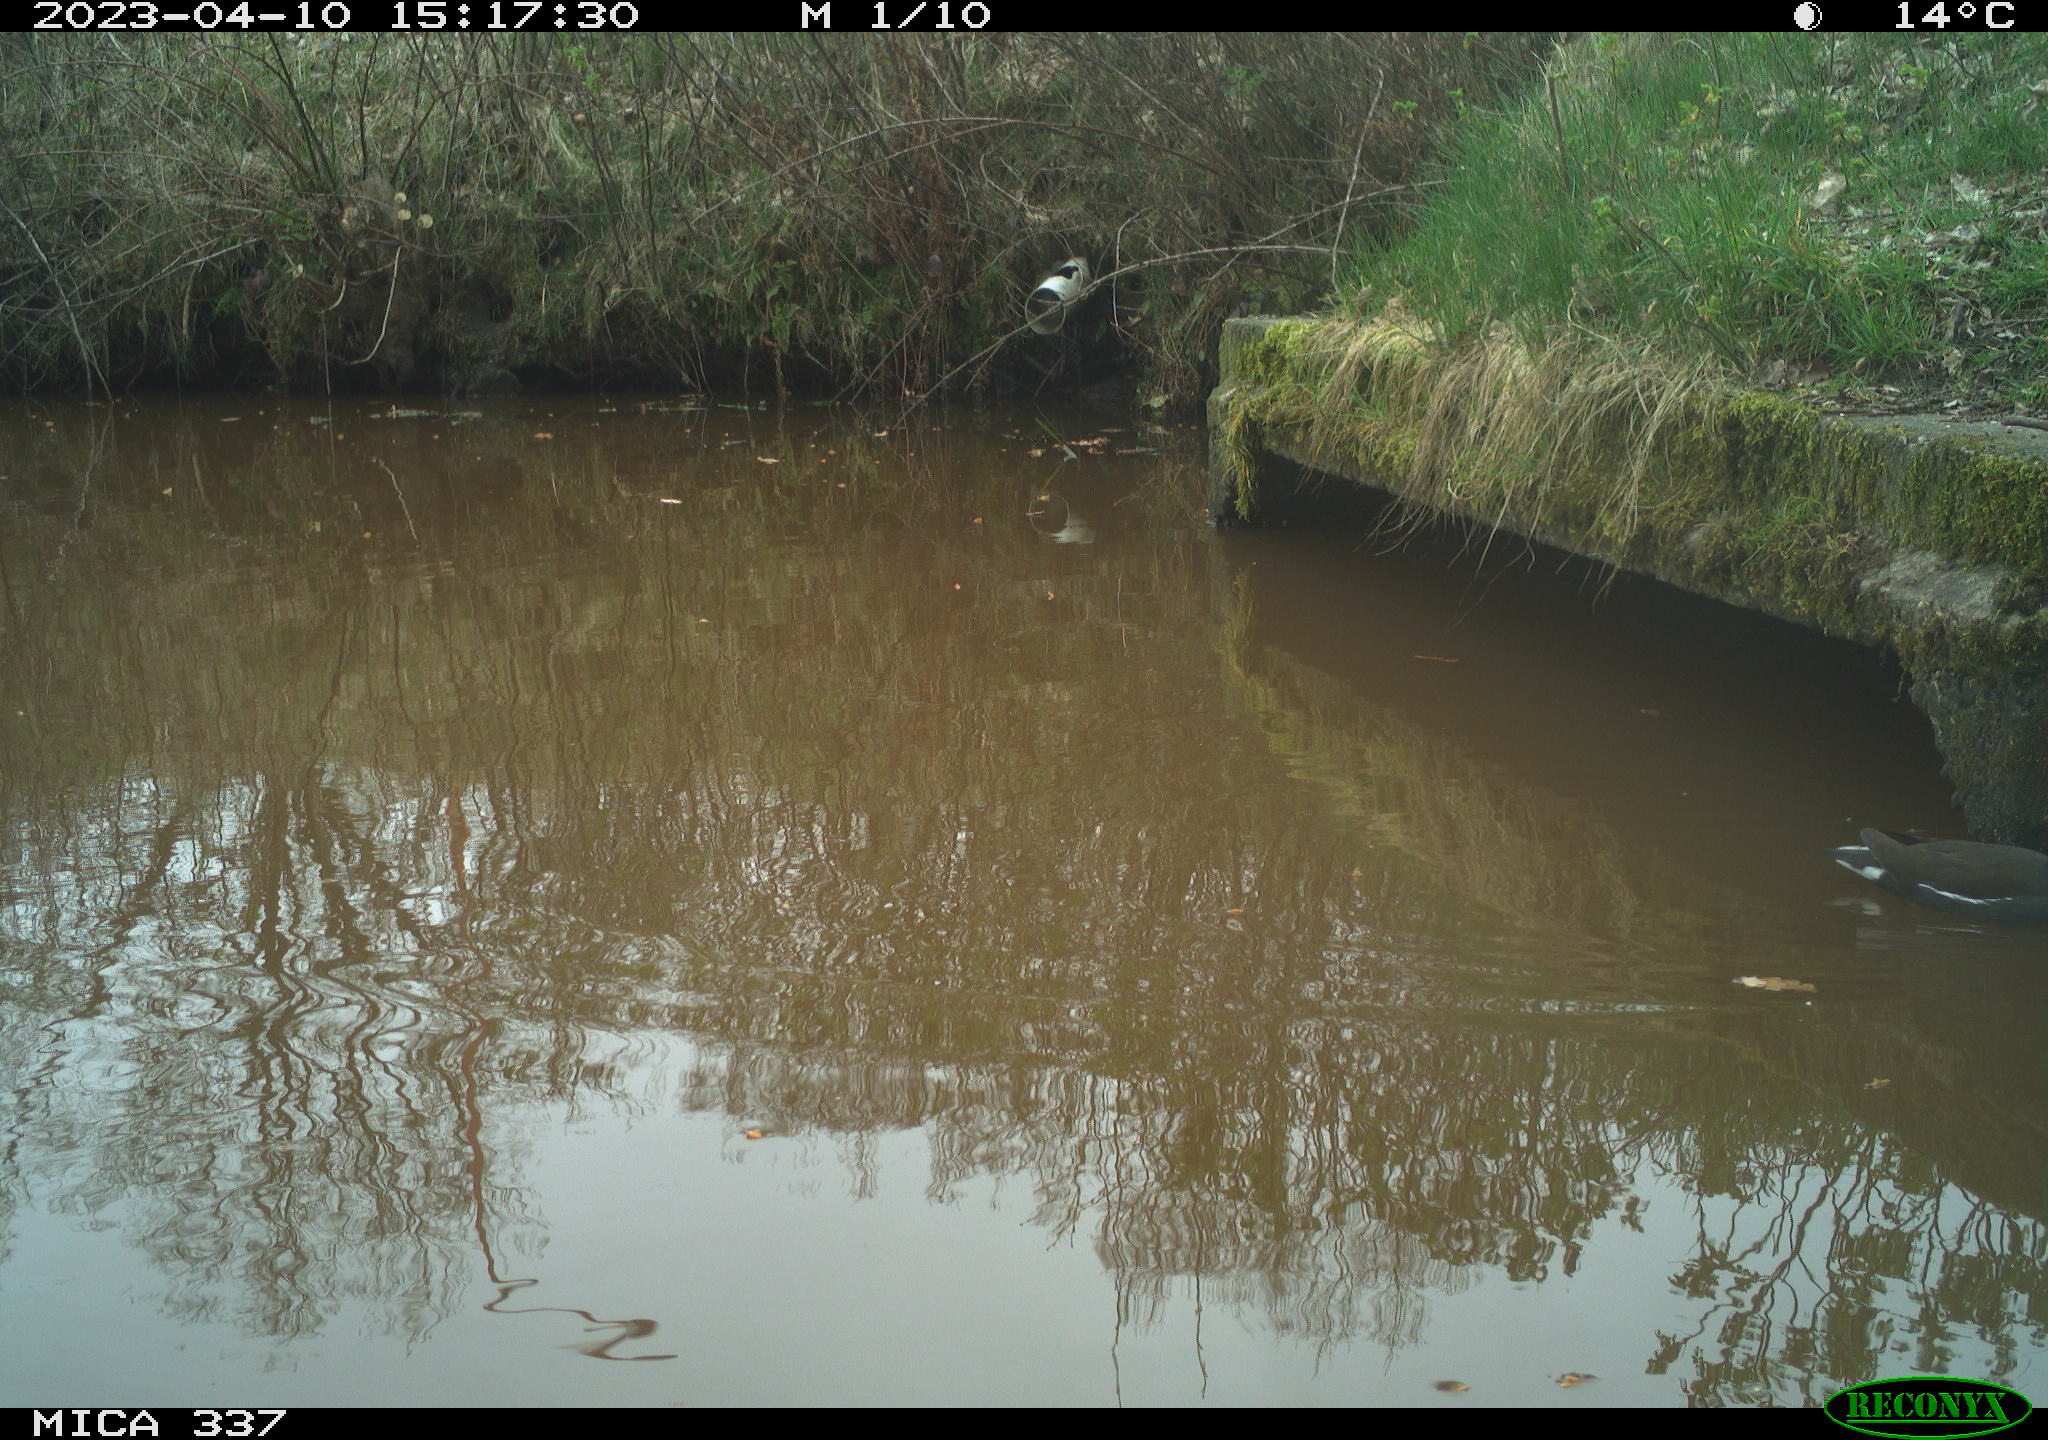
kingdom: Animalia
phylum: Chordata
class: Aves
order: Gruiformes
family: Rallidae
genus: Gallinula
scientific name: Gallinula chloropus
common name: Common moorhen
